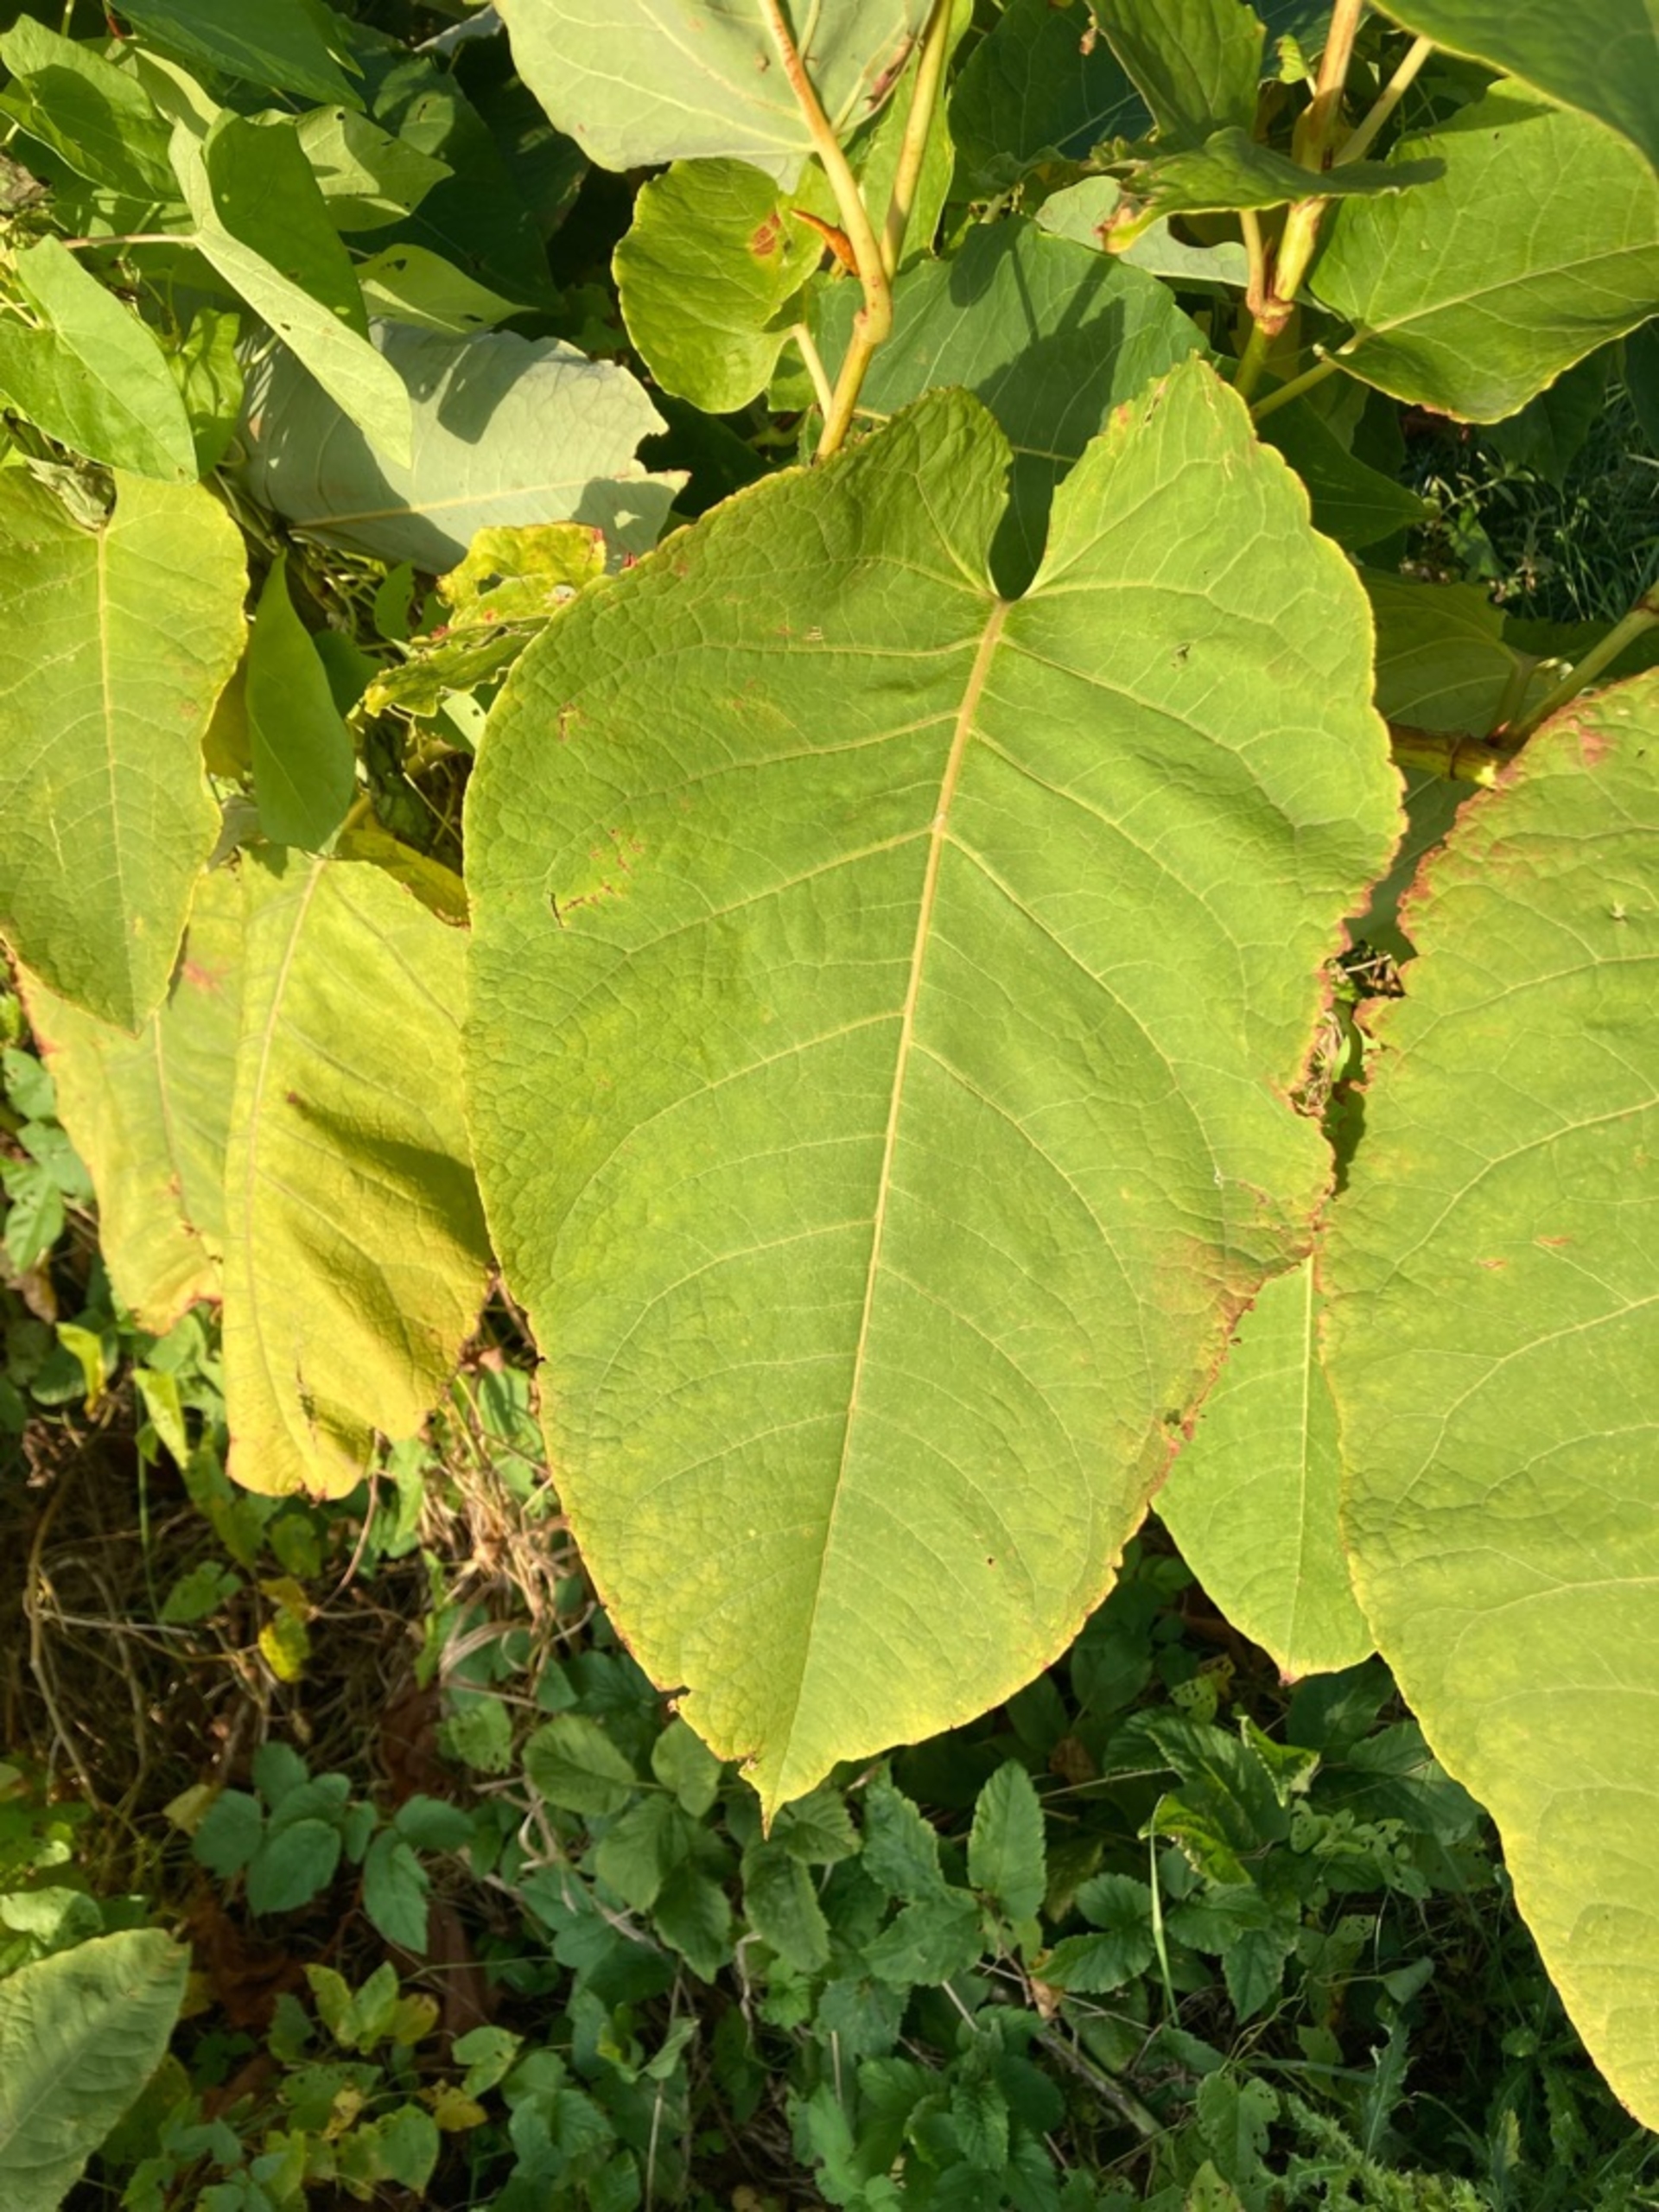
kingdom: Plantae
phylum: Tracheophyta
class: Magnoliopsida
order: Caryophyllales
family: Polygonaceae
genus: Reynoutria
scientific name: Reynoutria sachalinensis
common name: Kæmpe-pileurt
